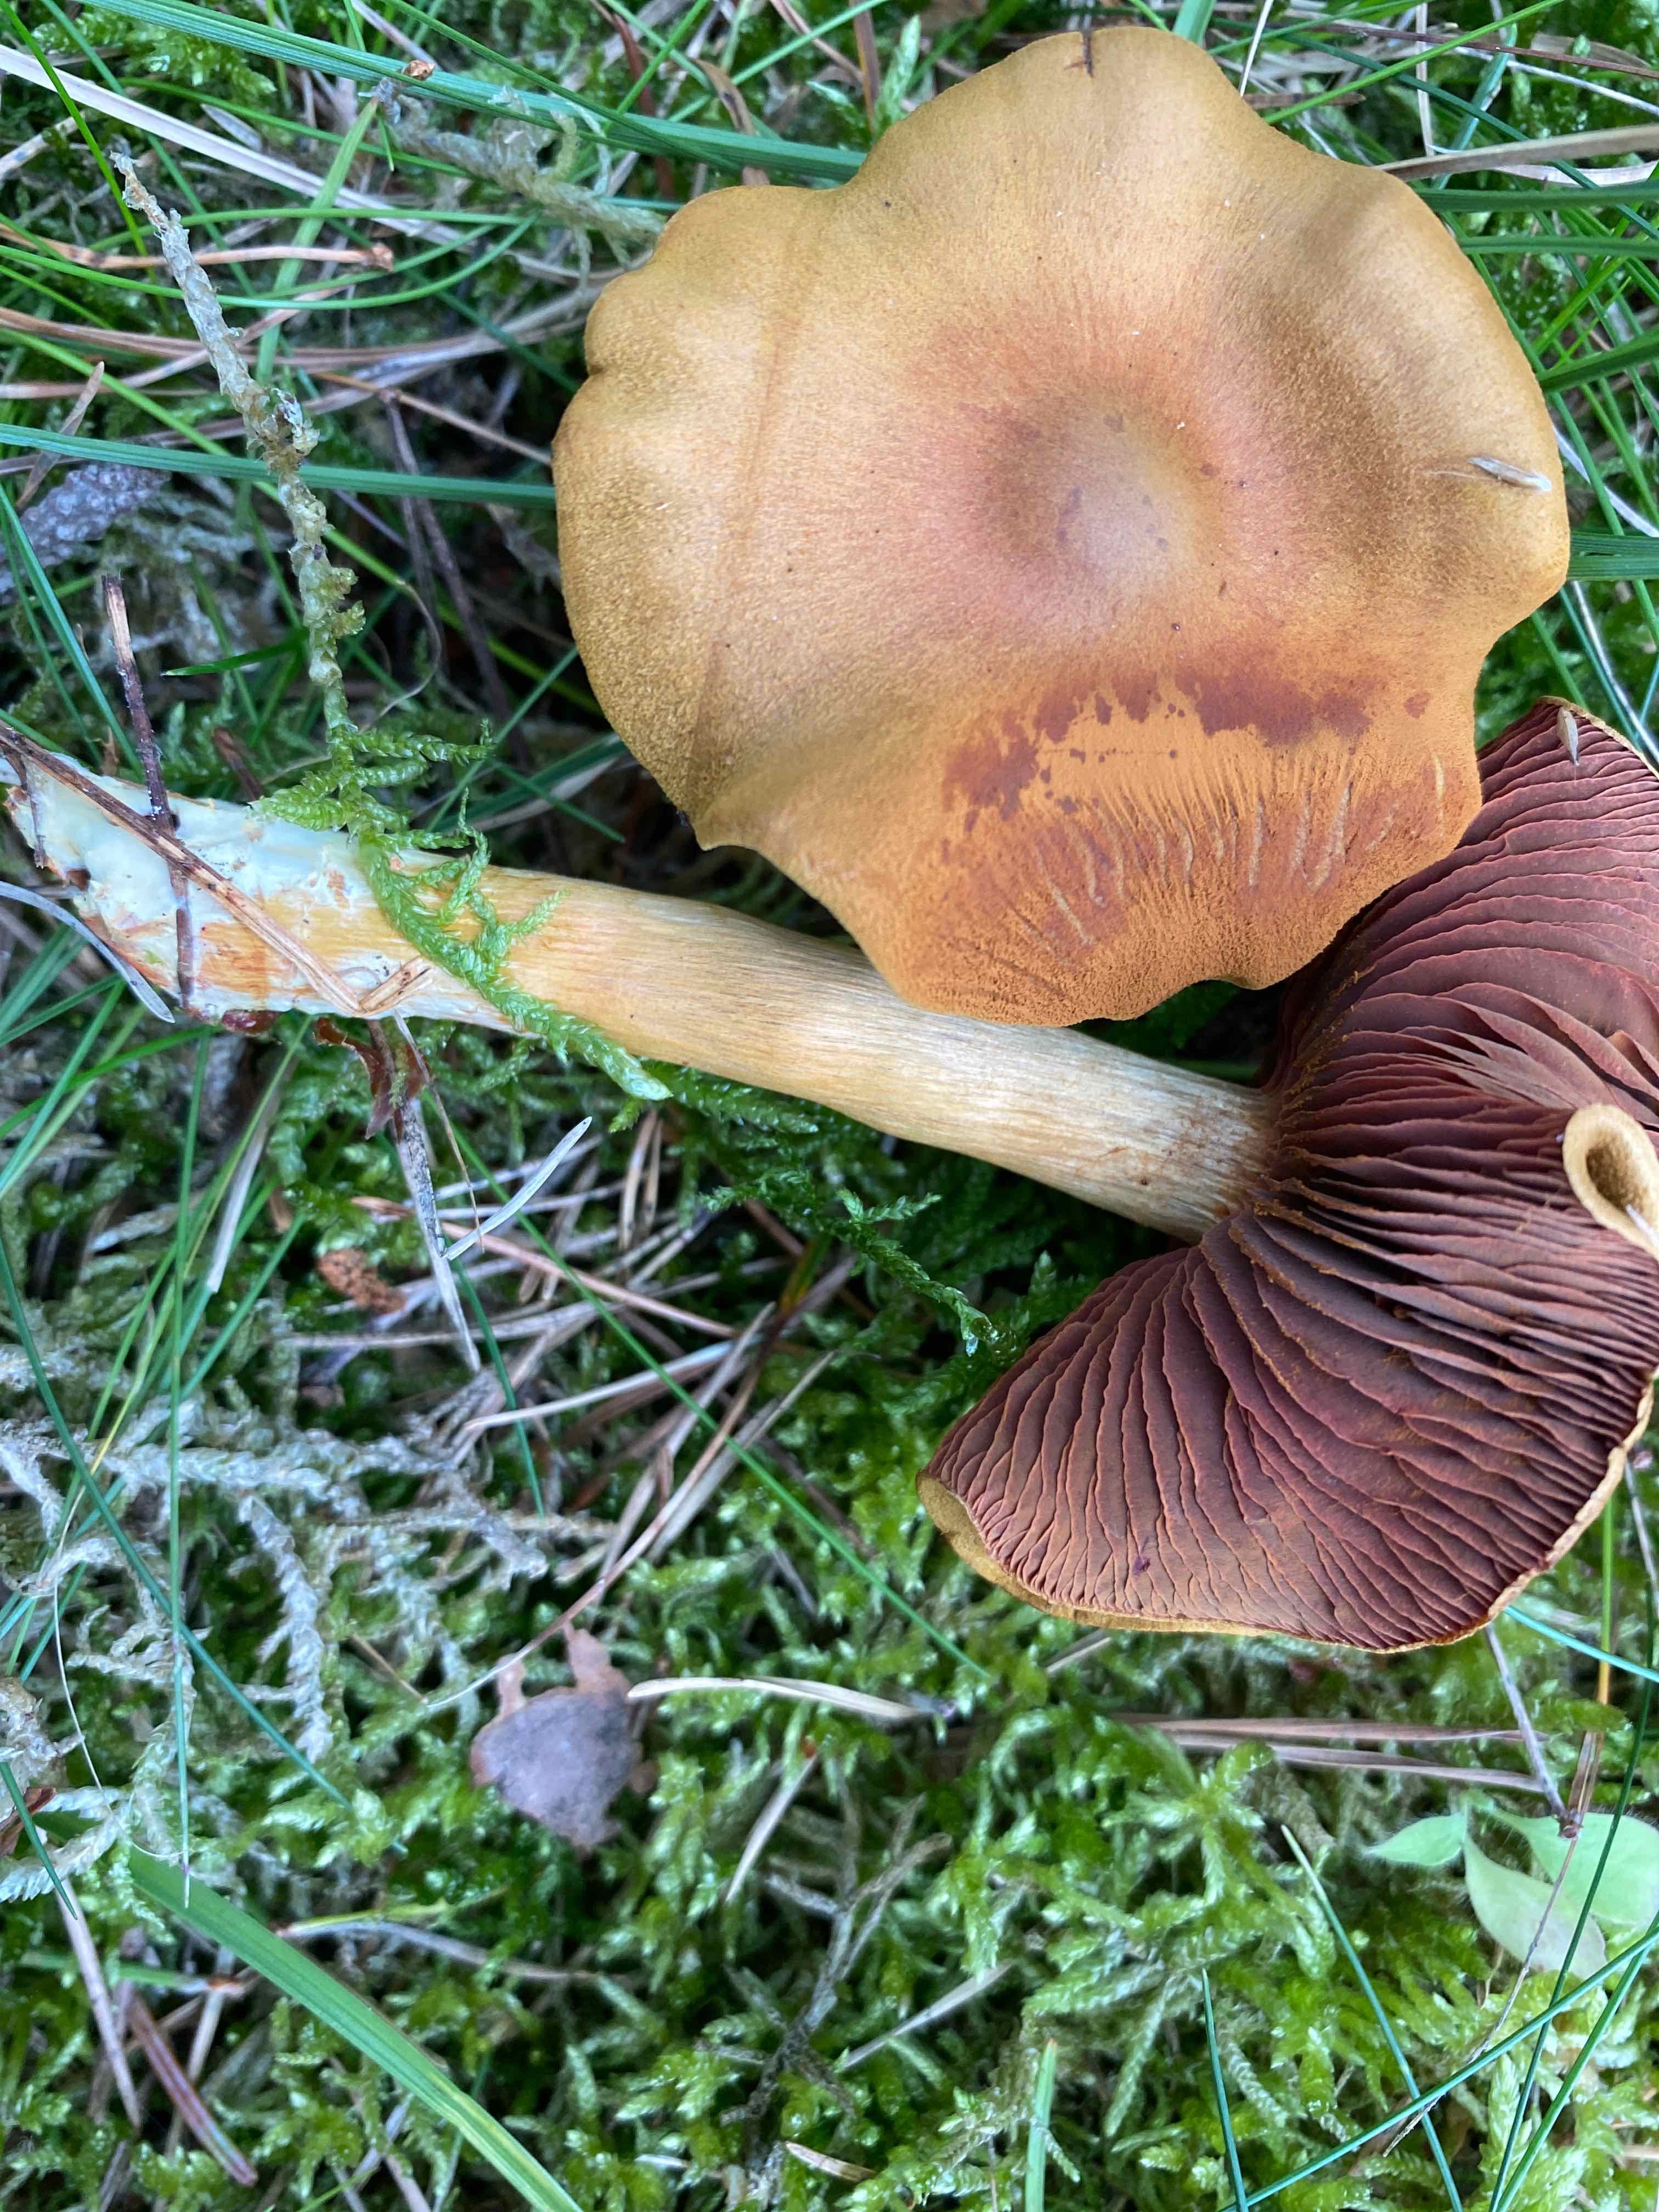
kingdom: Fungi
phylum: Basidiomycota
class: Agaricomycetes
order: Agaricales
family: Cortinariaceae
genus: Cortinarius
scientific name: Cortinarius
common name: cinnoberbladet slørhat
